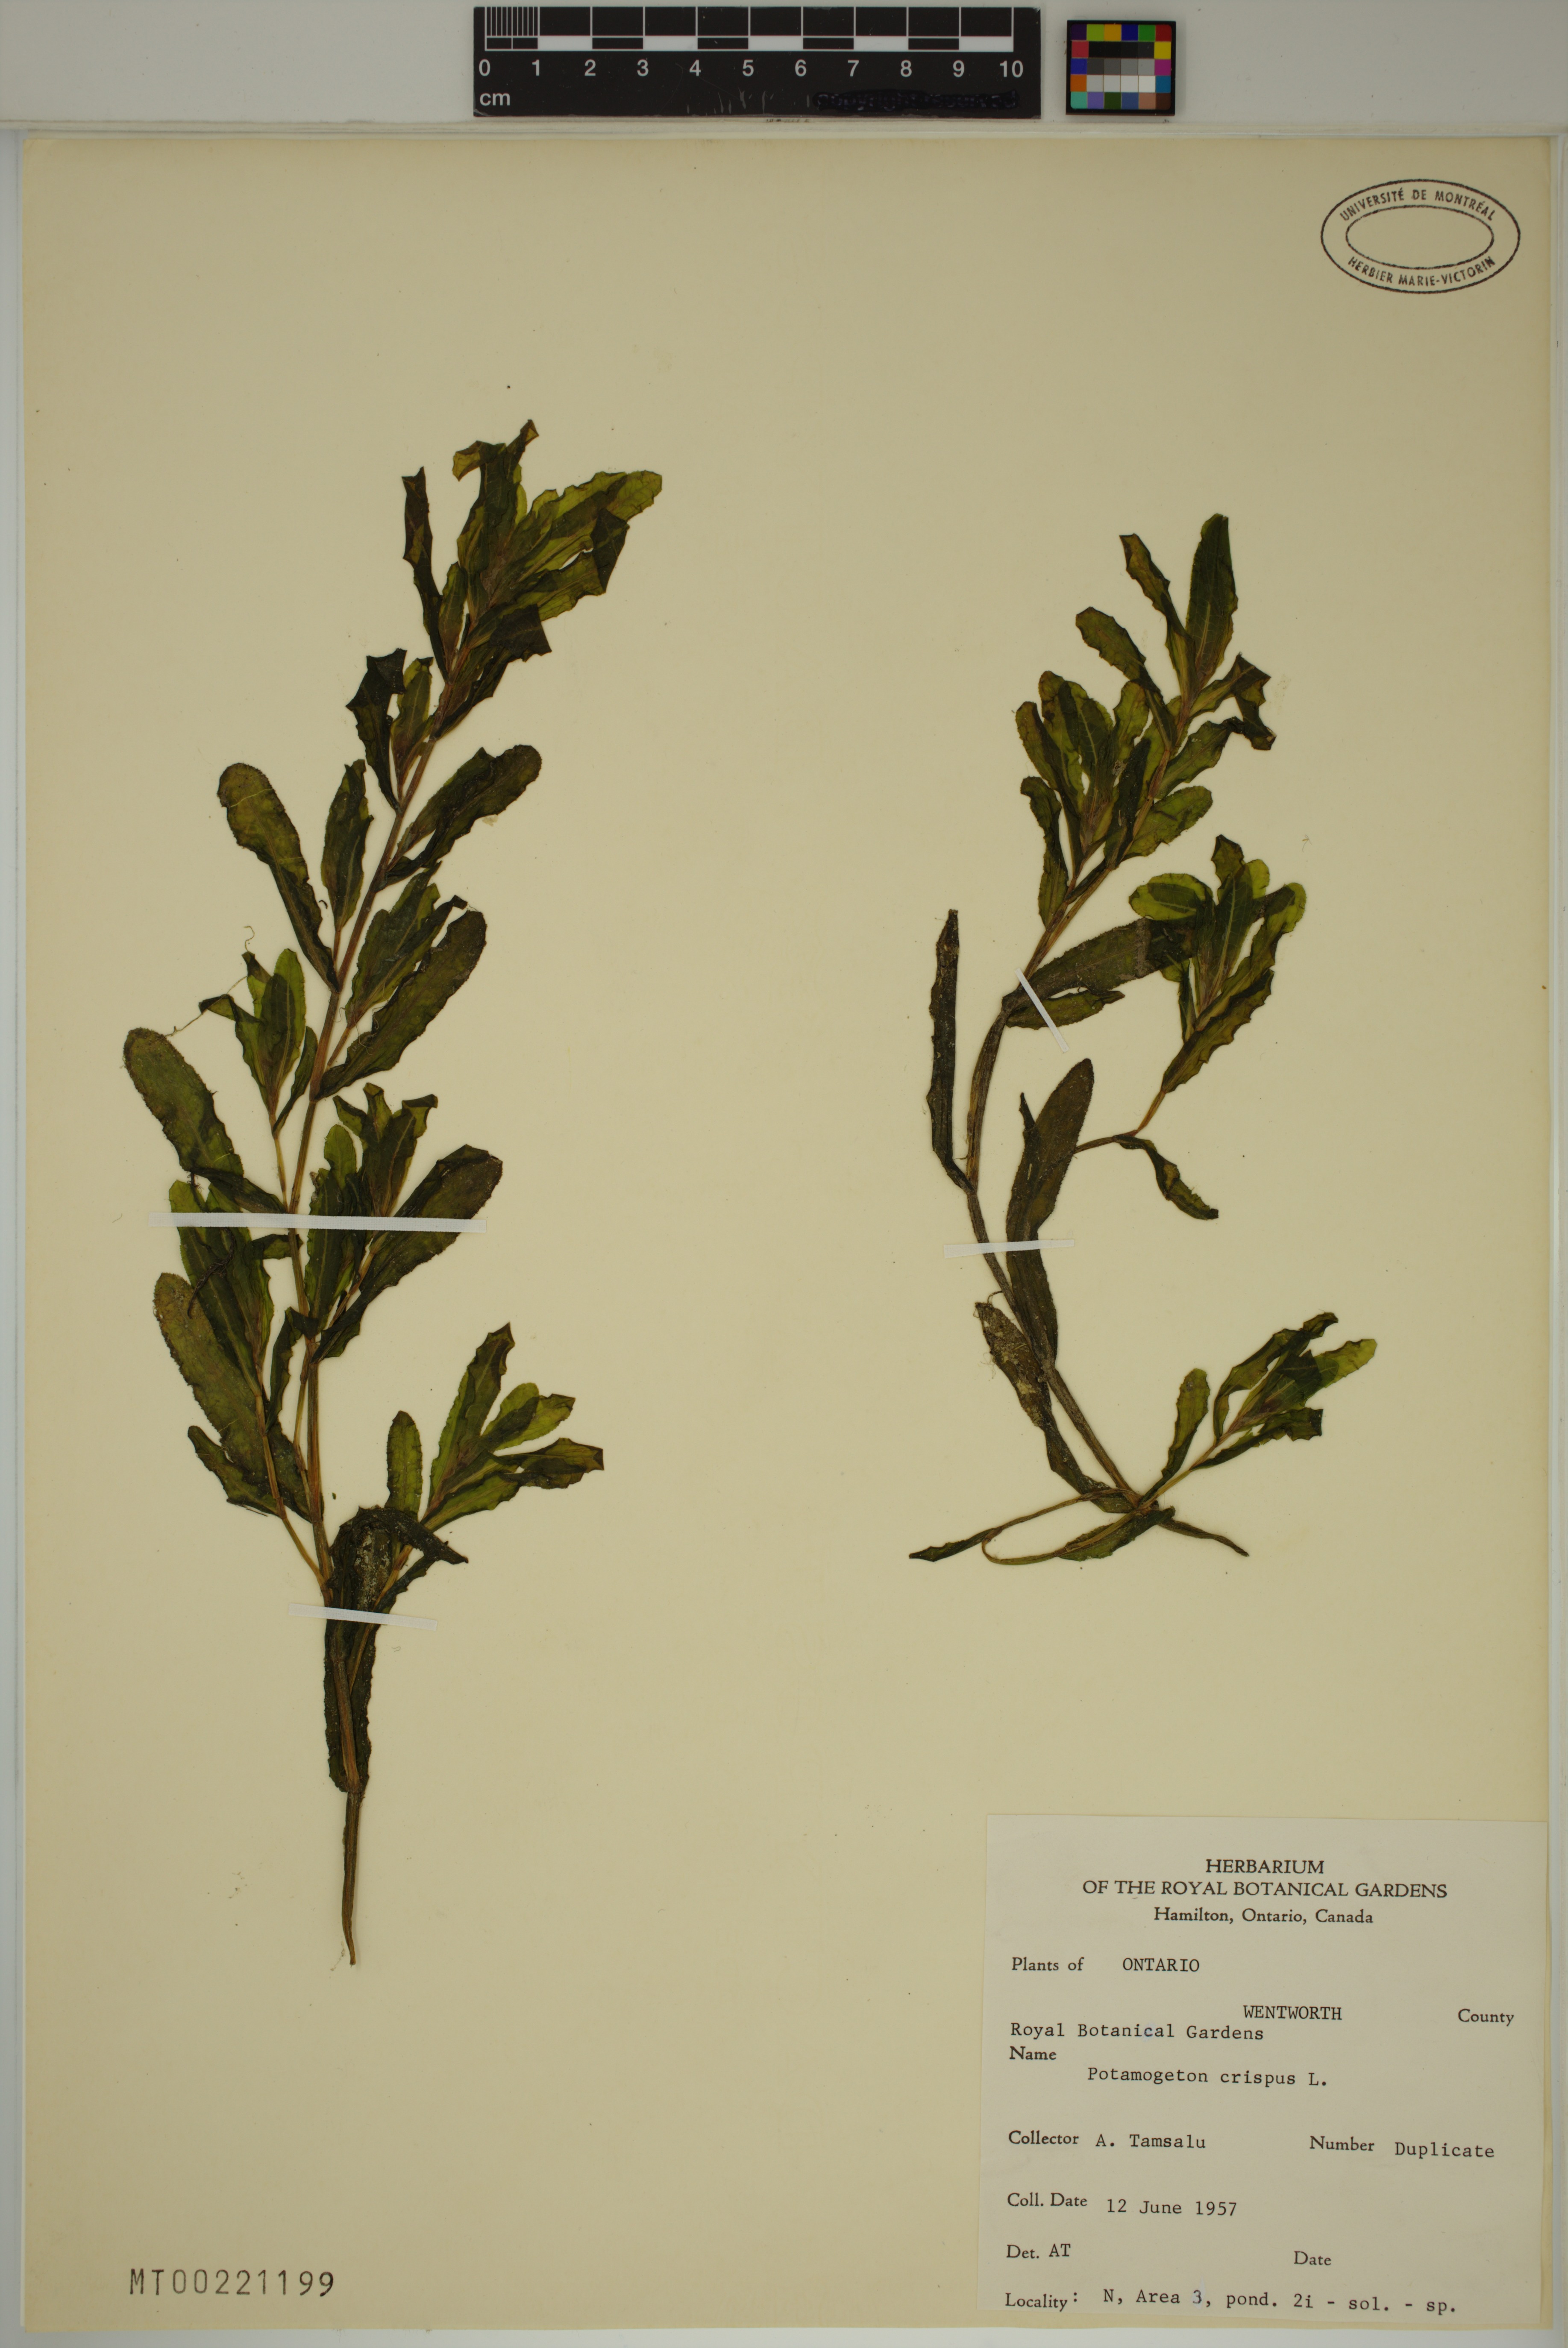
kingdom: Plantae
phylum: Tracheophyta
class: Liliopsida
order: Alismatales
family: Potamogetonaceae
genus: Potamogeton
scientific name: Potamogeton crispus
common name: Curled pondweed
